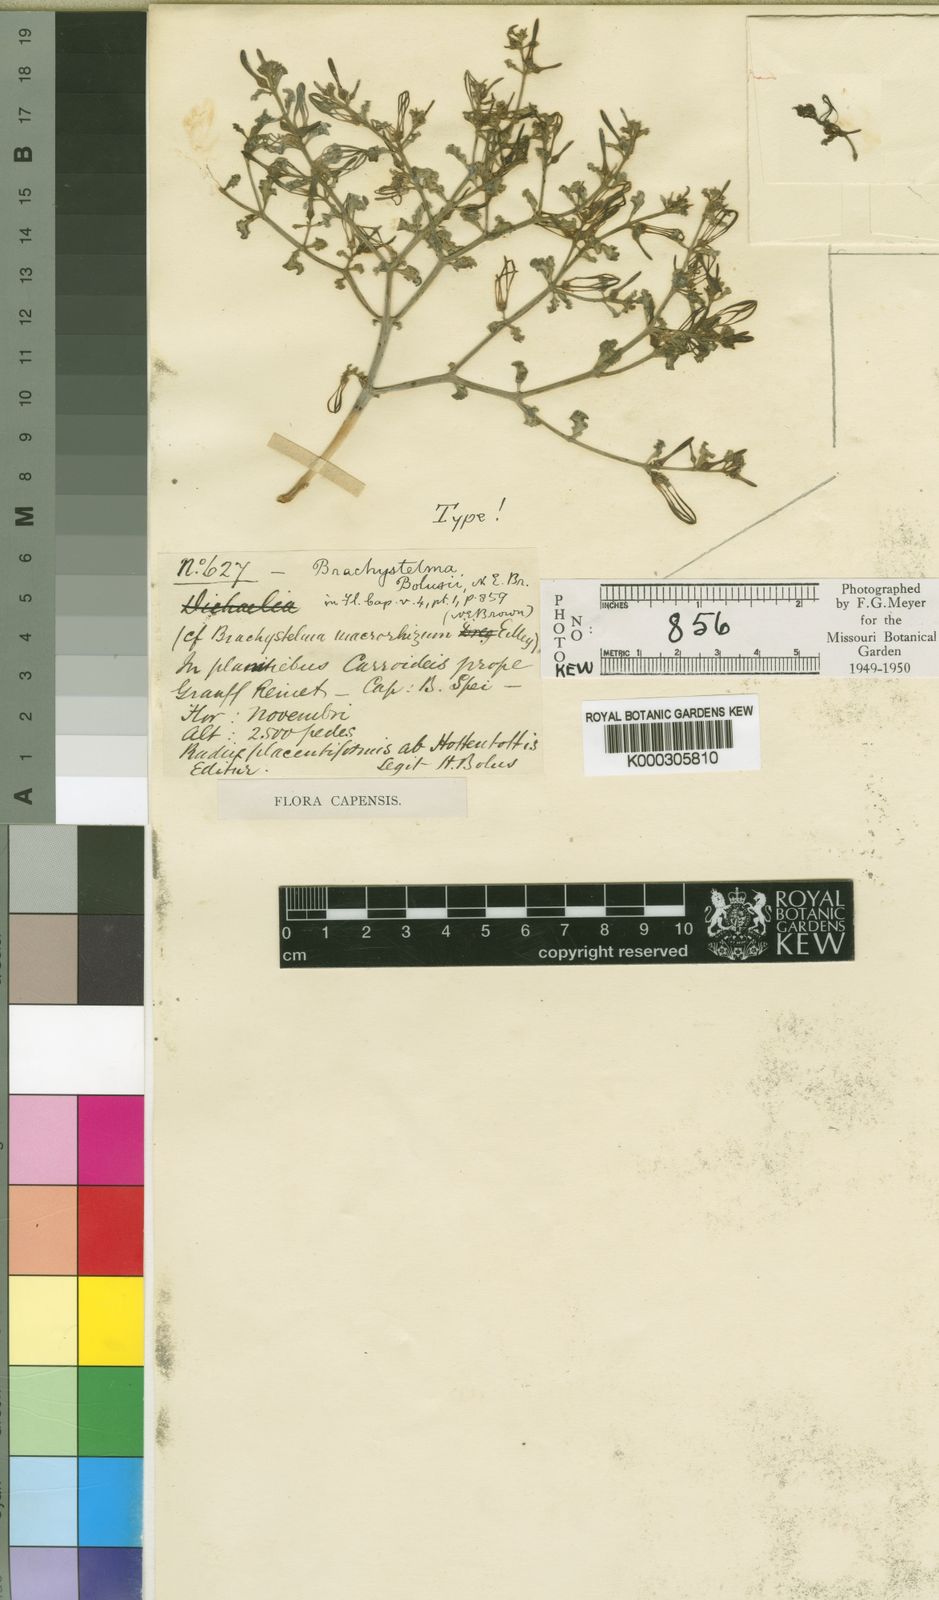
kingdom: Plantae
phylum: Tracheophyta
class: Magnoliopsida
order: Gentianales
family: Apocynaceae
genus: Ceropegia
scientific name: Ceropegia circinata
